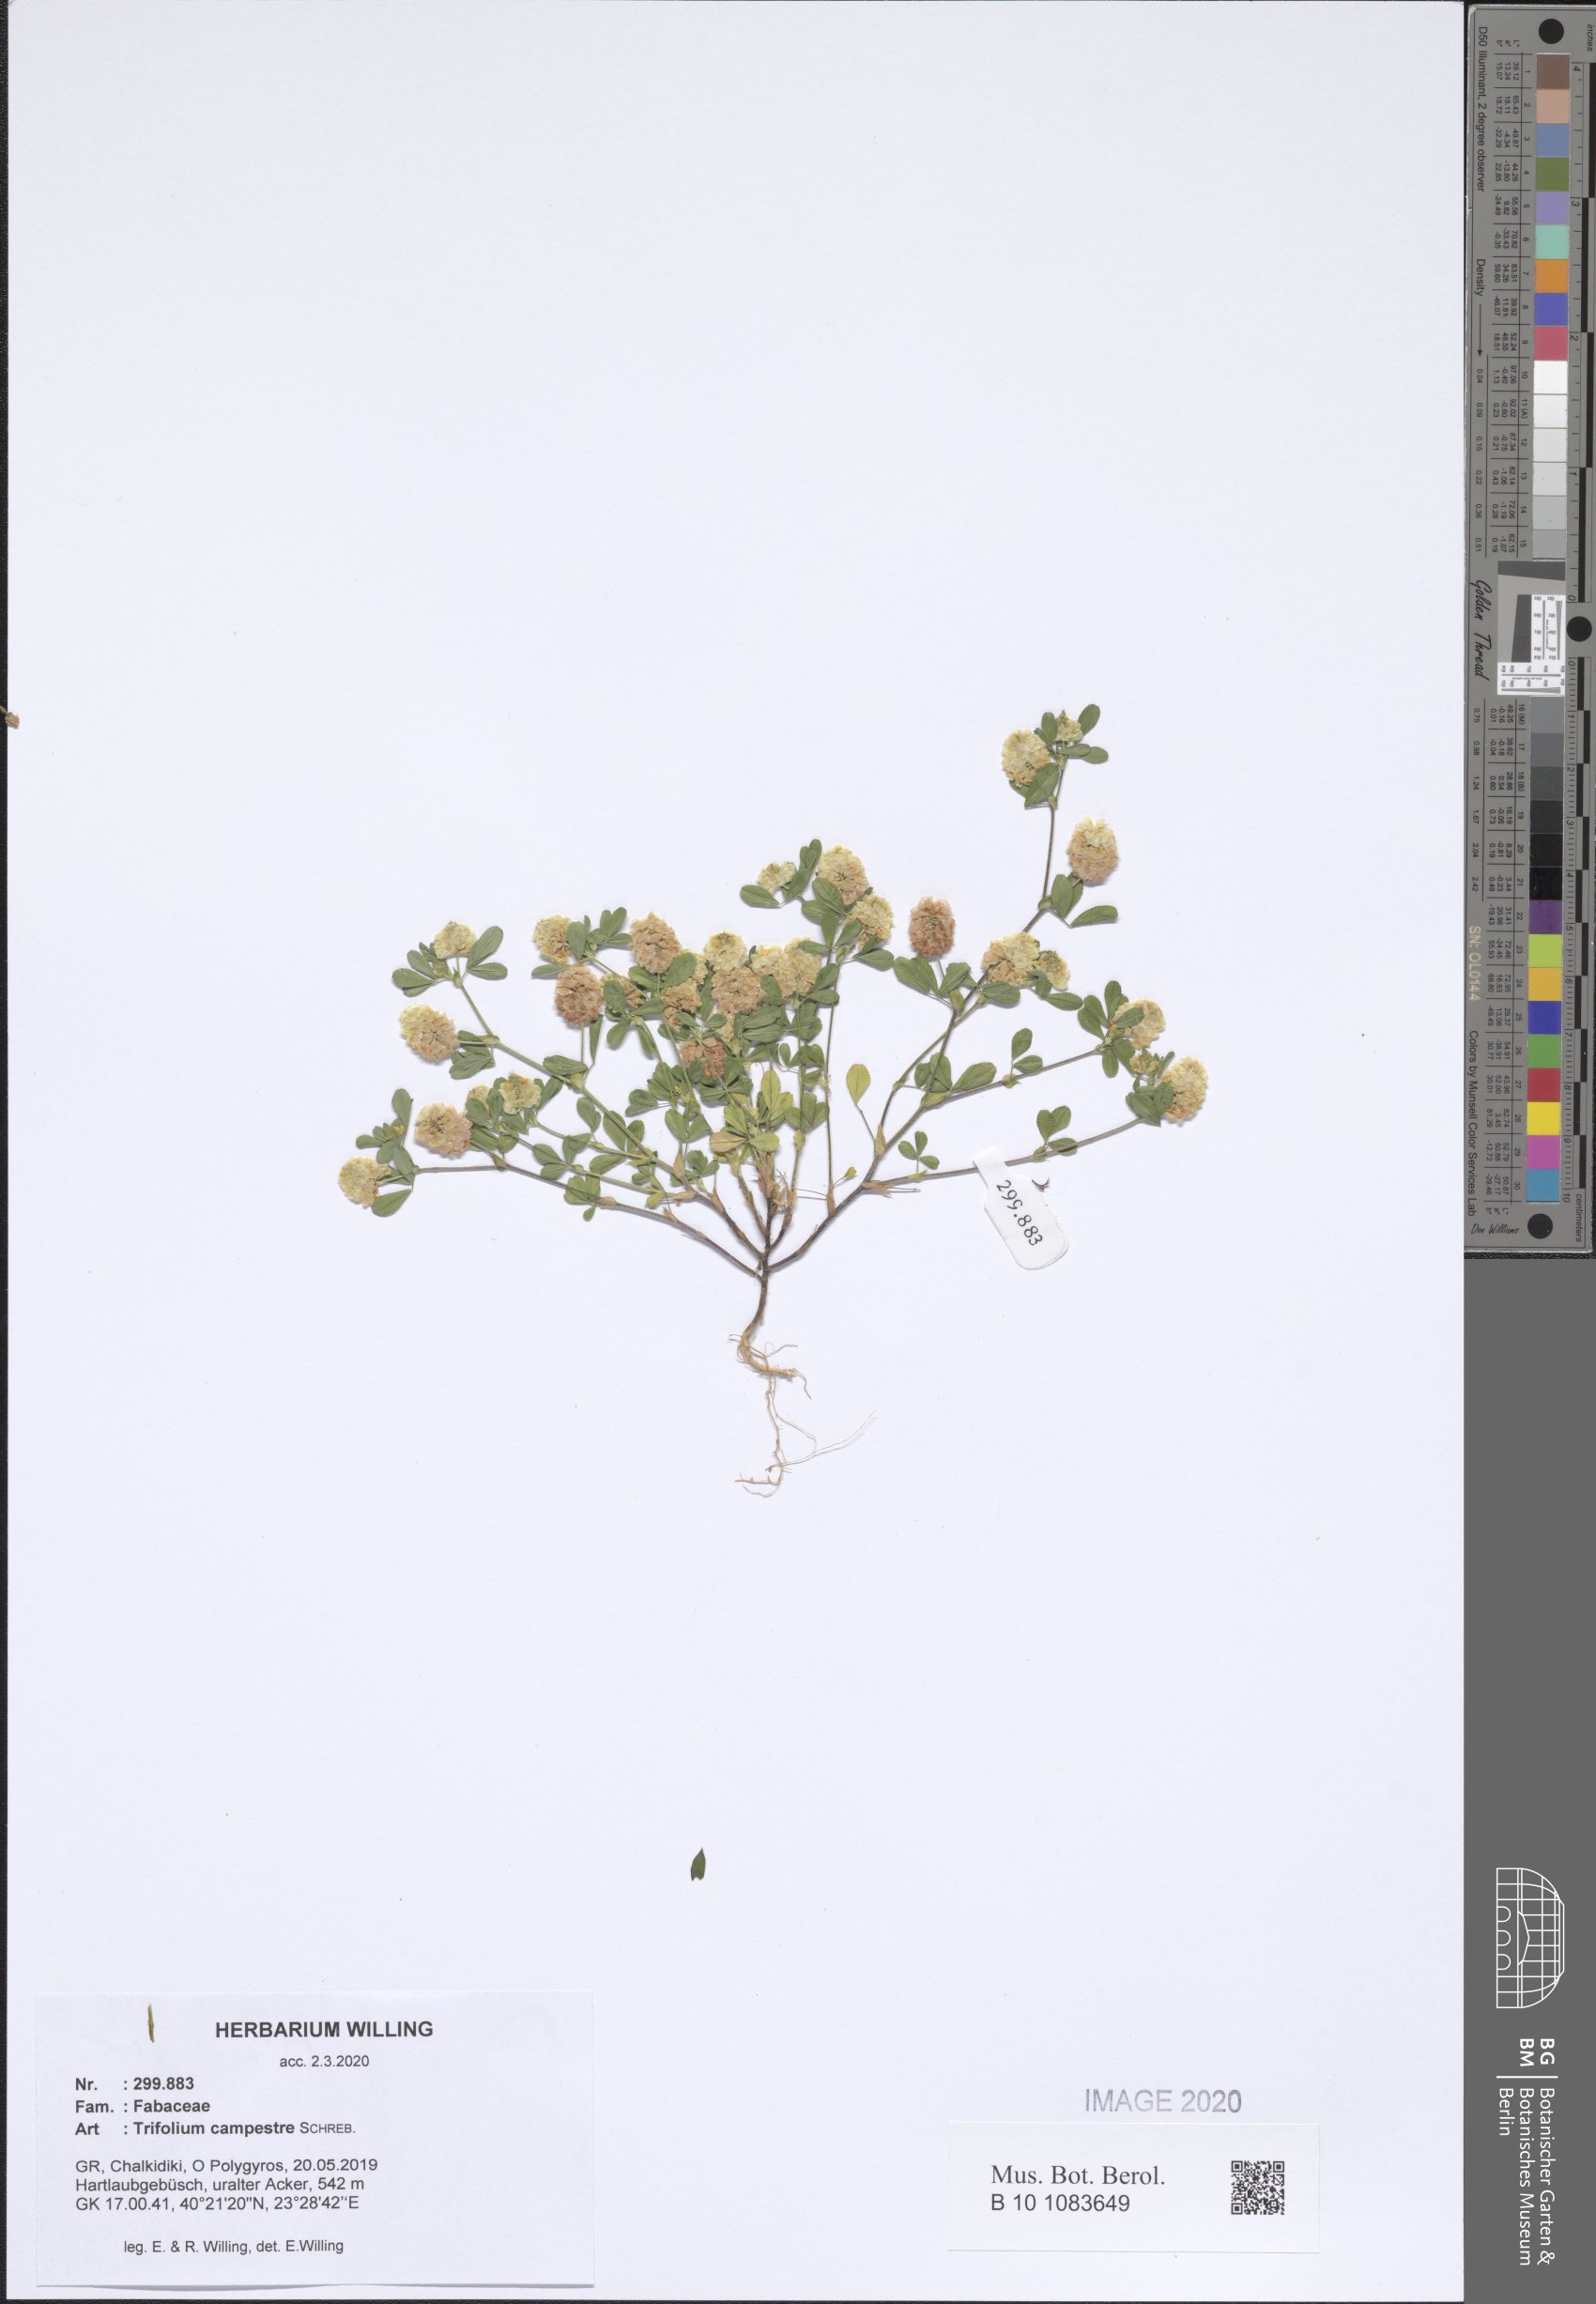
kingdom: Plantae
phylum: Tracheophyta
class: Magnoliopsida
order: Fabales
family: Fabaceae
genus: Trifolium
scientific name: Trifolium campestre
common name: Field clover
